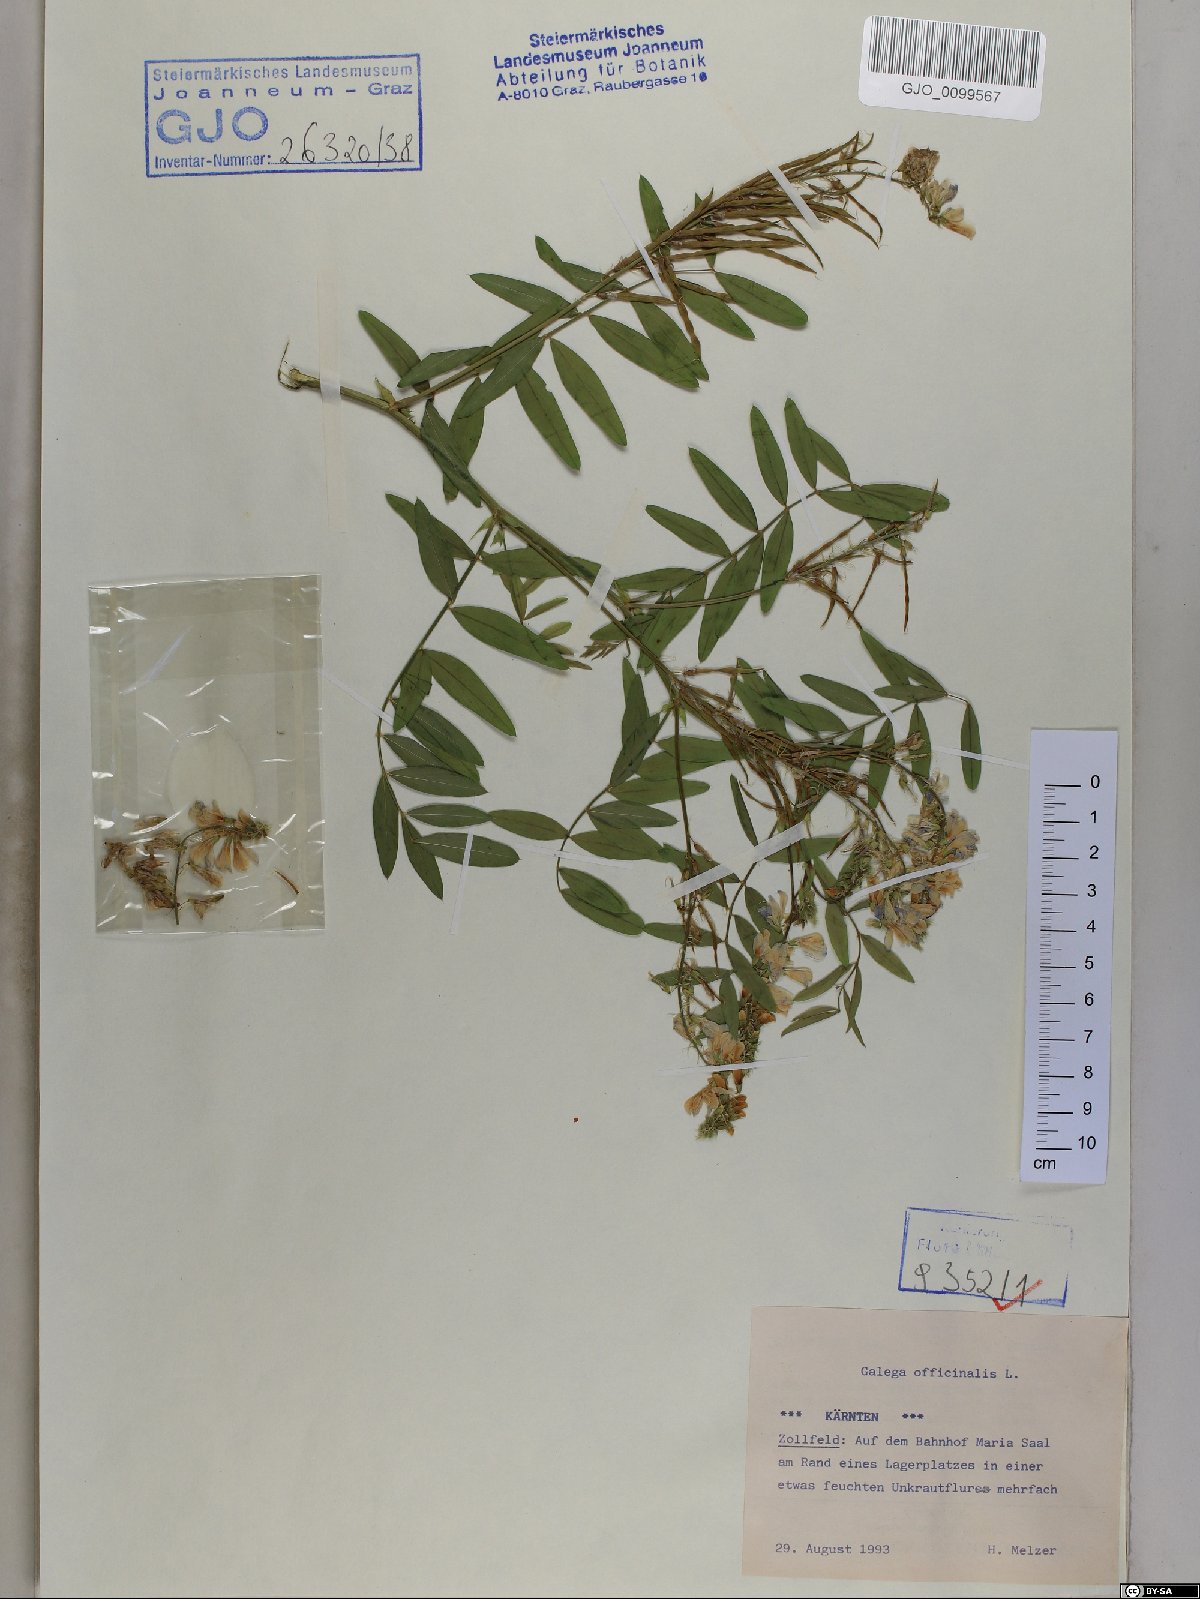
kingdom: Plantae
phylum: Tracheophyta
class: Magnoliopsida
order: Fabales
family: Fabaceae
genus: Galega
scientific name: Galega officinalis
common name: Goat's-rue
